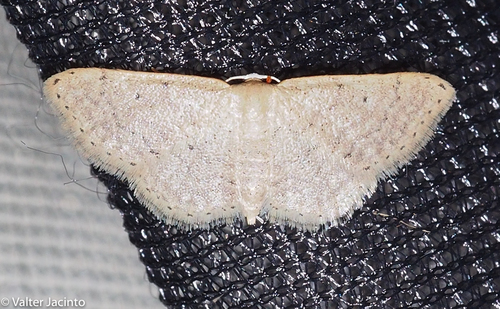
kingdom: Animalia
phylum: Arthropoda
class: Insecta
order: Lepidoptera
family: Geometridae
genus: Idaea
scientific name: Idaea elongaria
